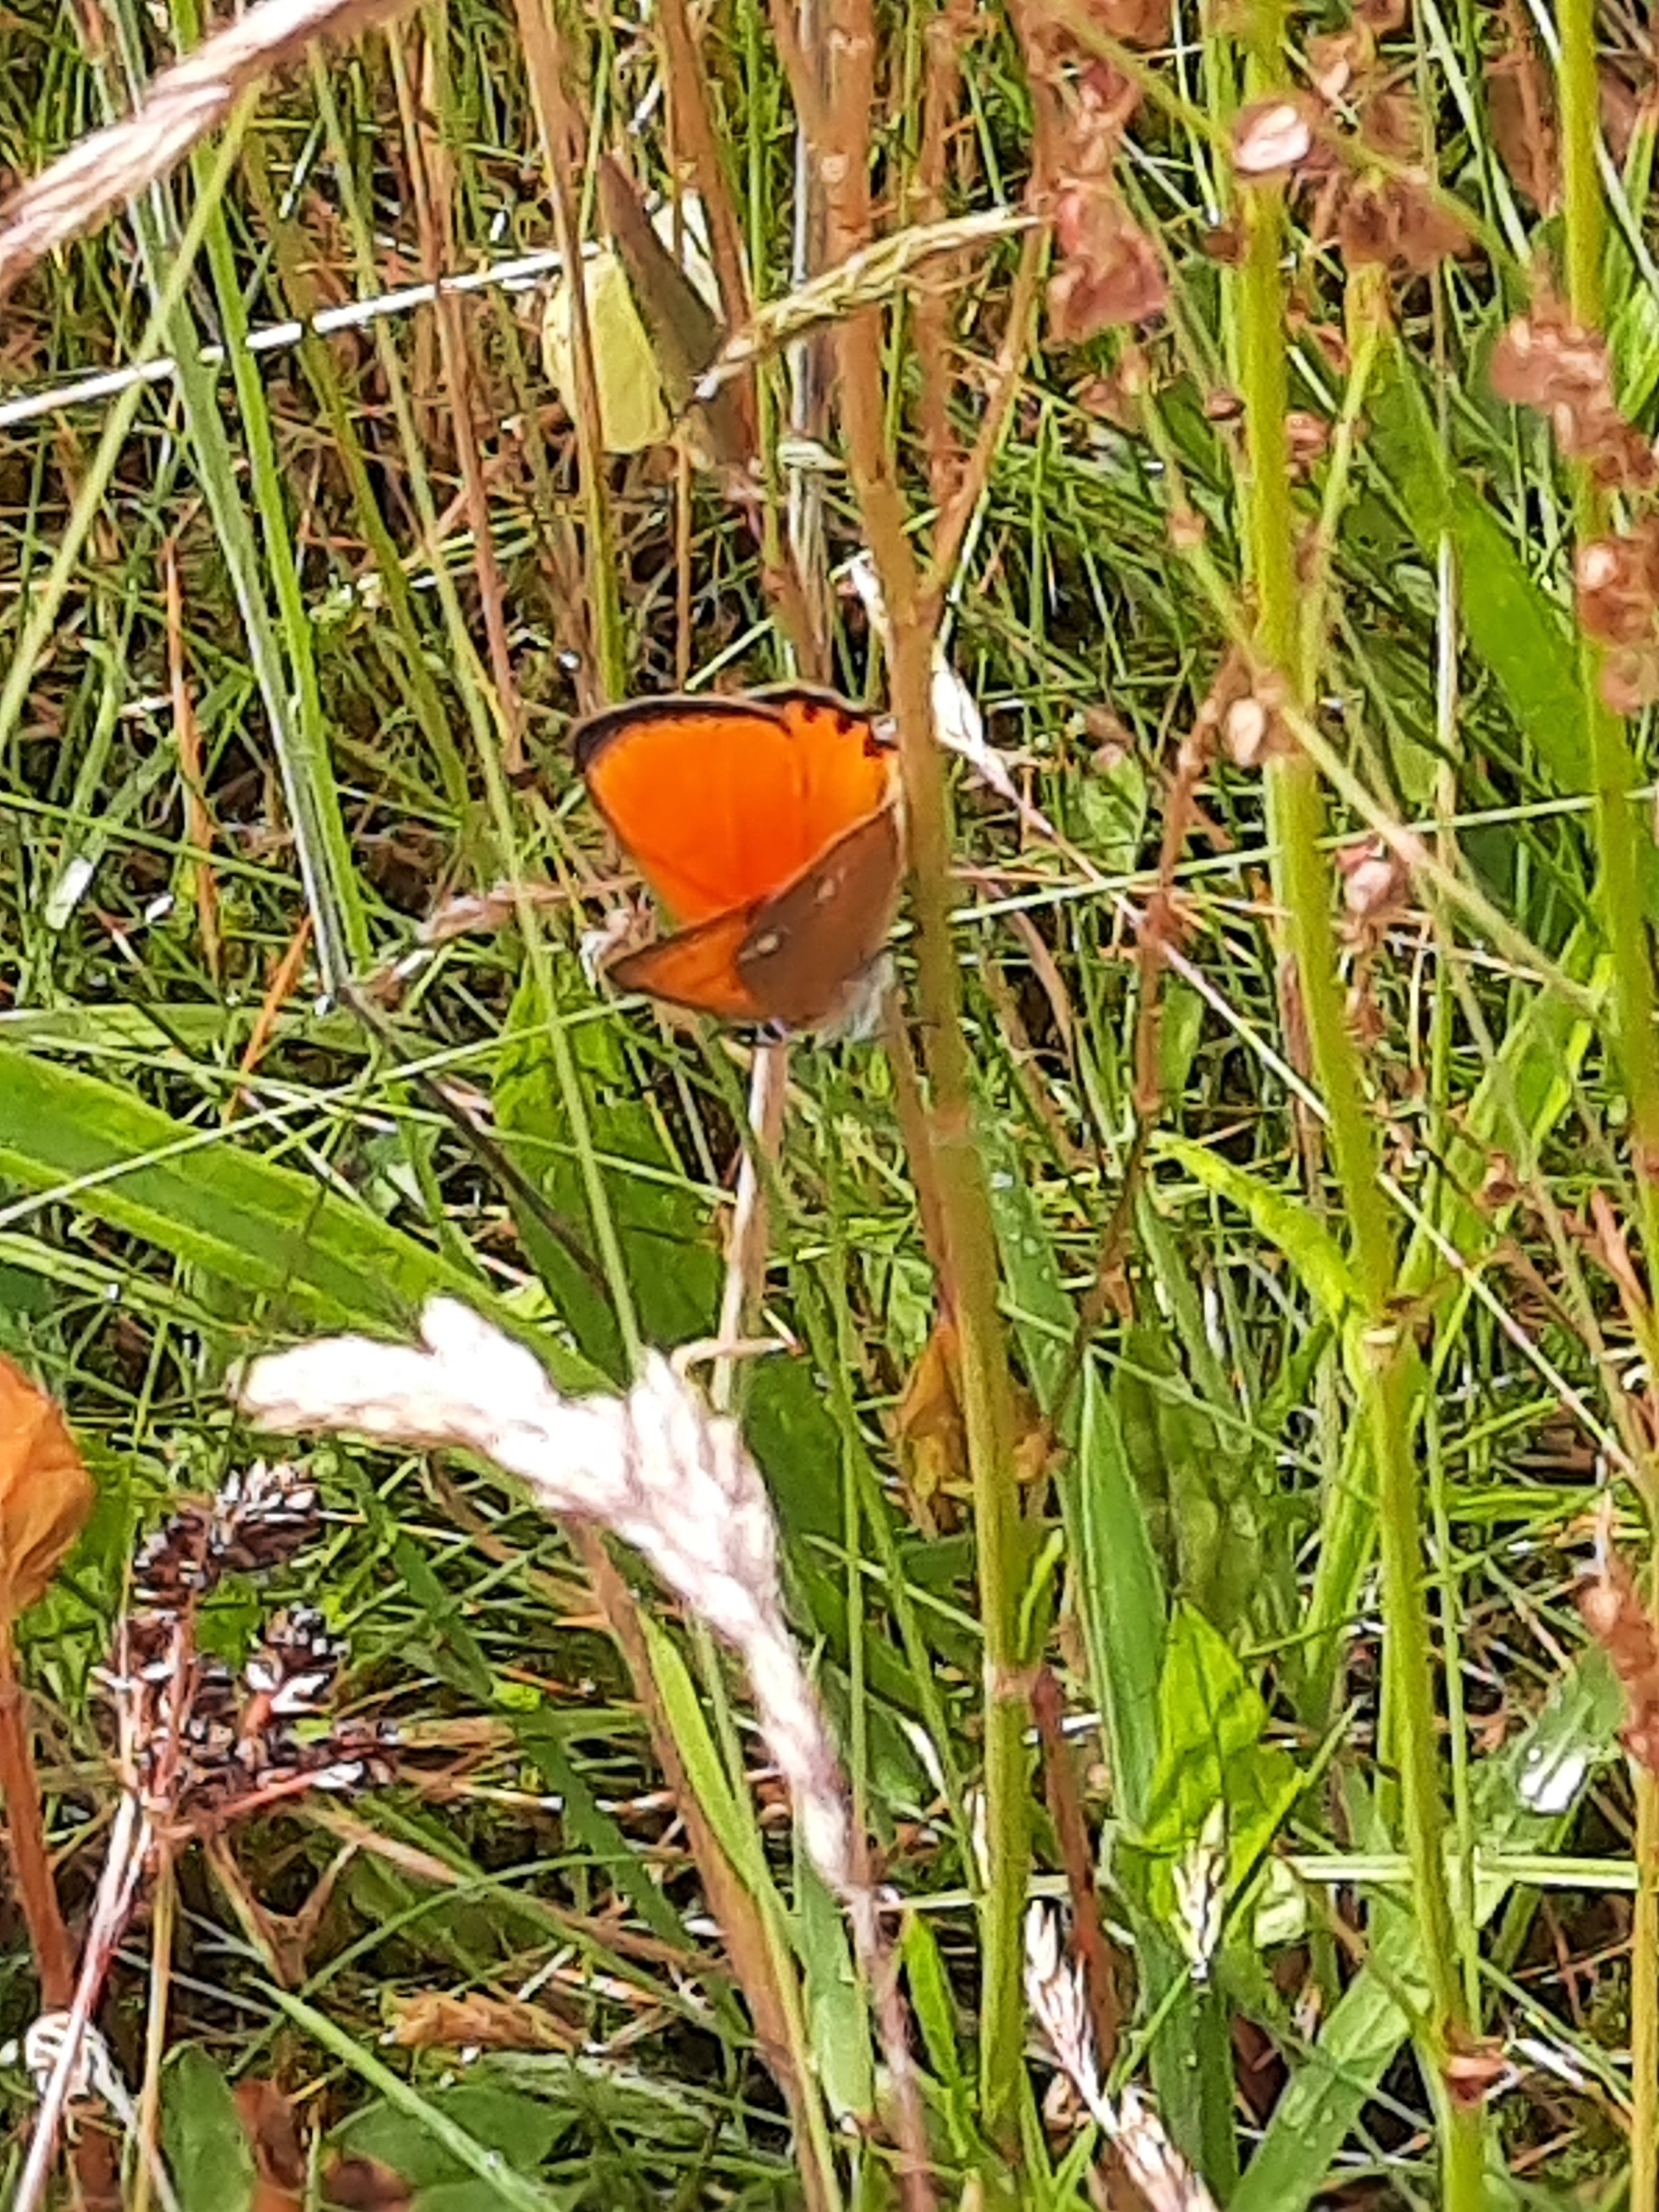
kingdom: Animalia
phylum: Arthropoda
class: Insecta
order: Lepidoptera
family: Lycaenidae
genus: Lycaena
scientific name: Lycaena virgaureae
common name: Dukatsommerfugl
